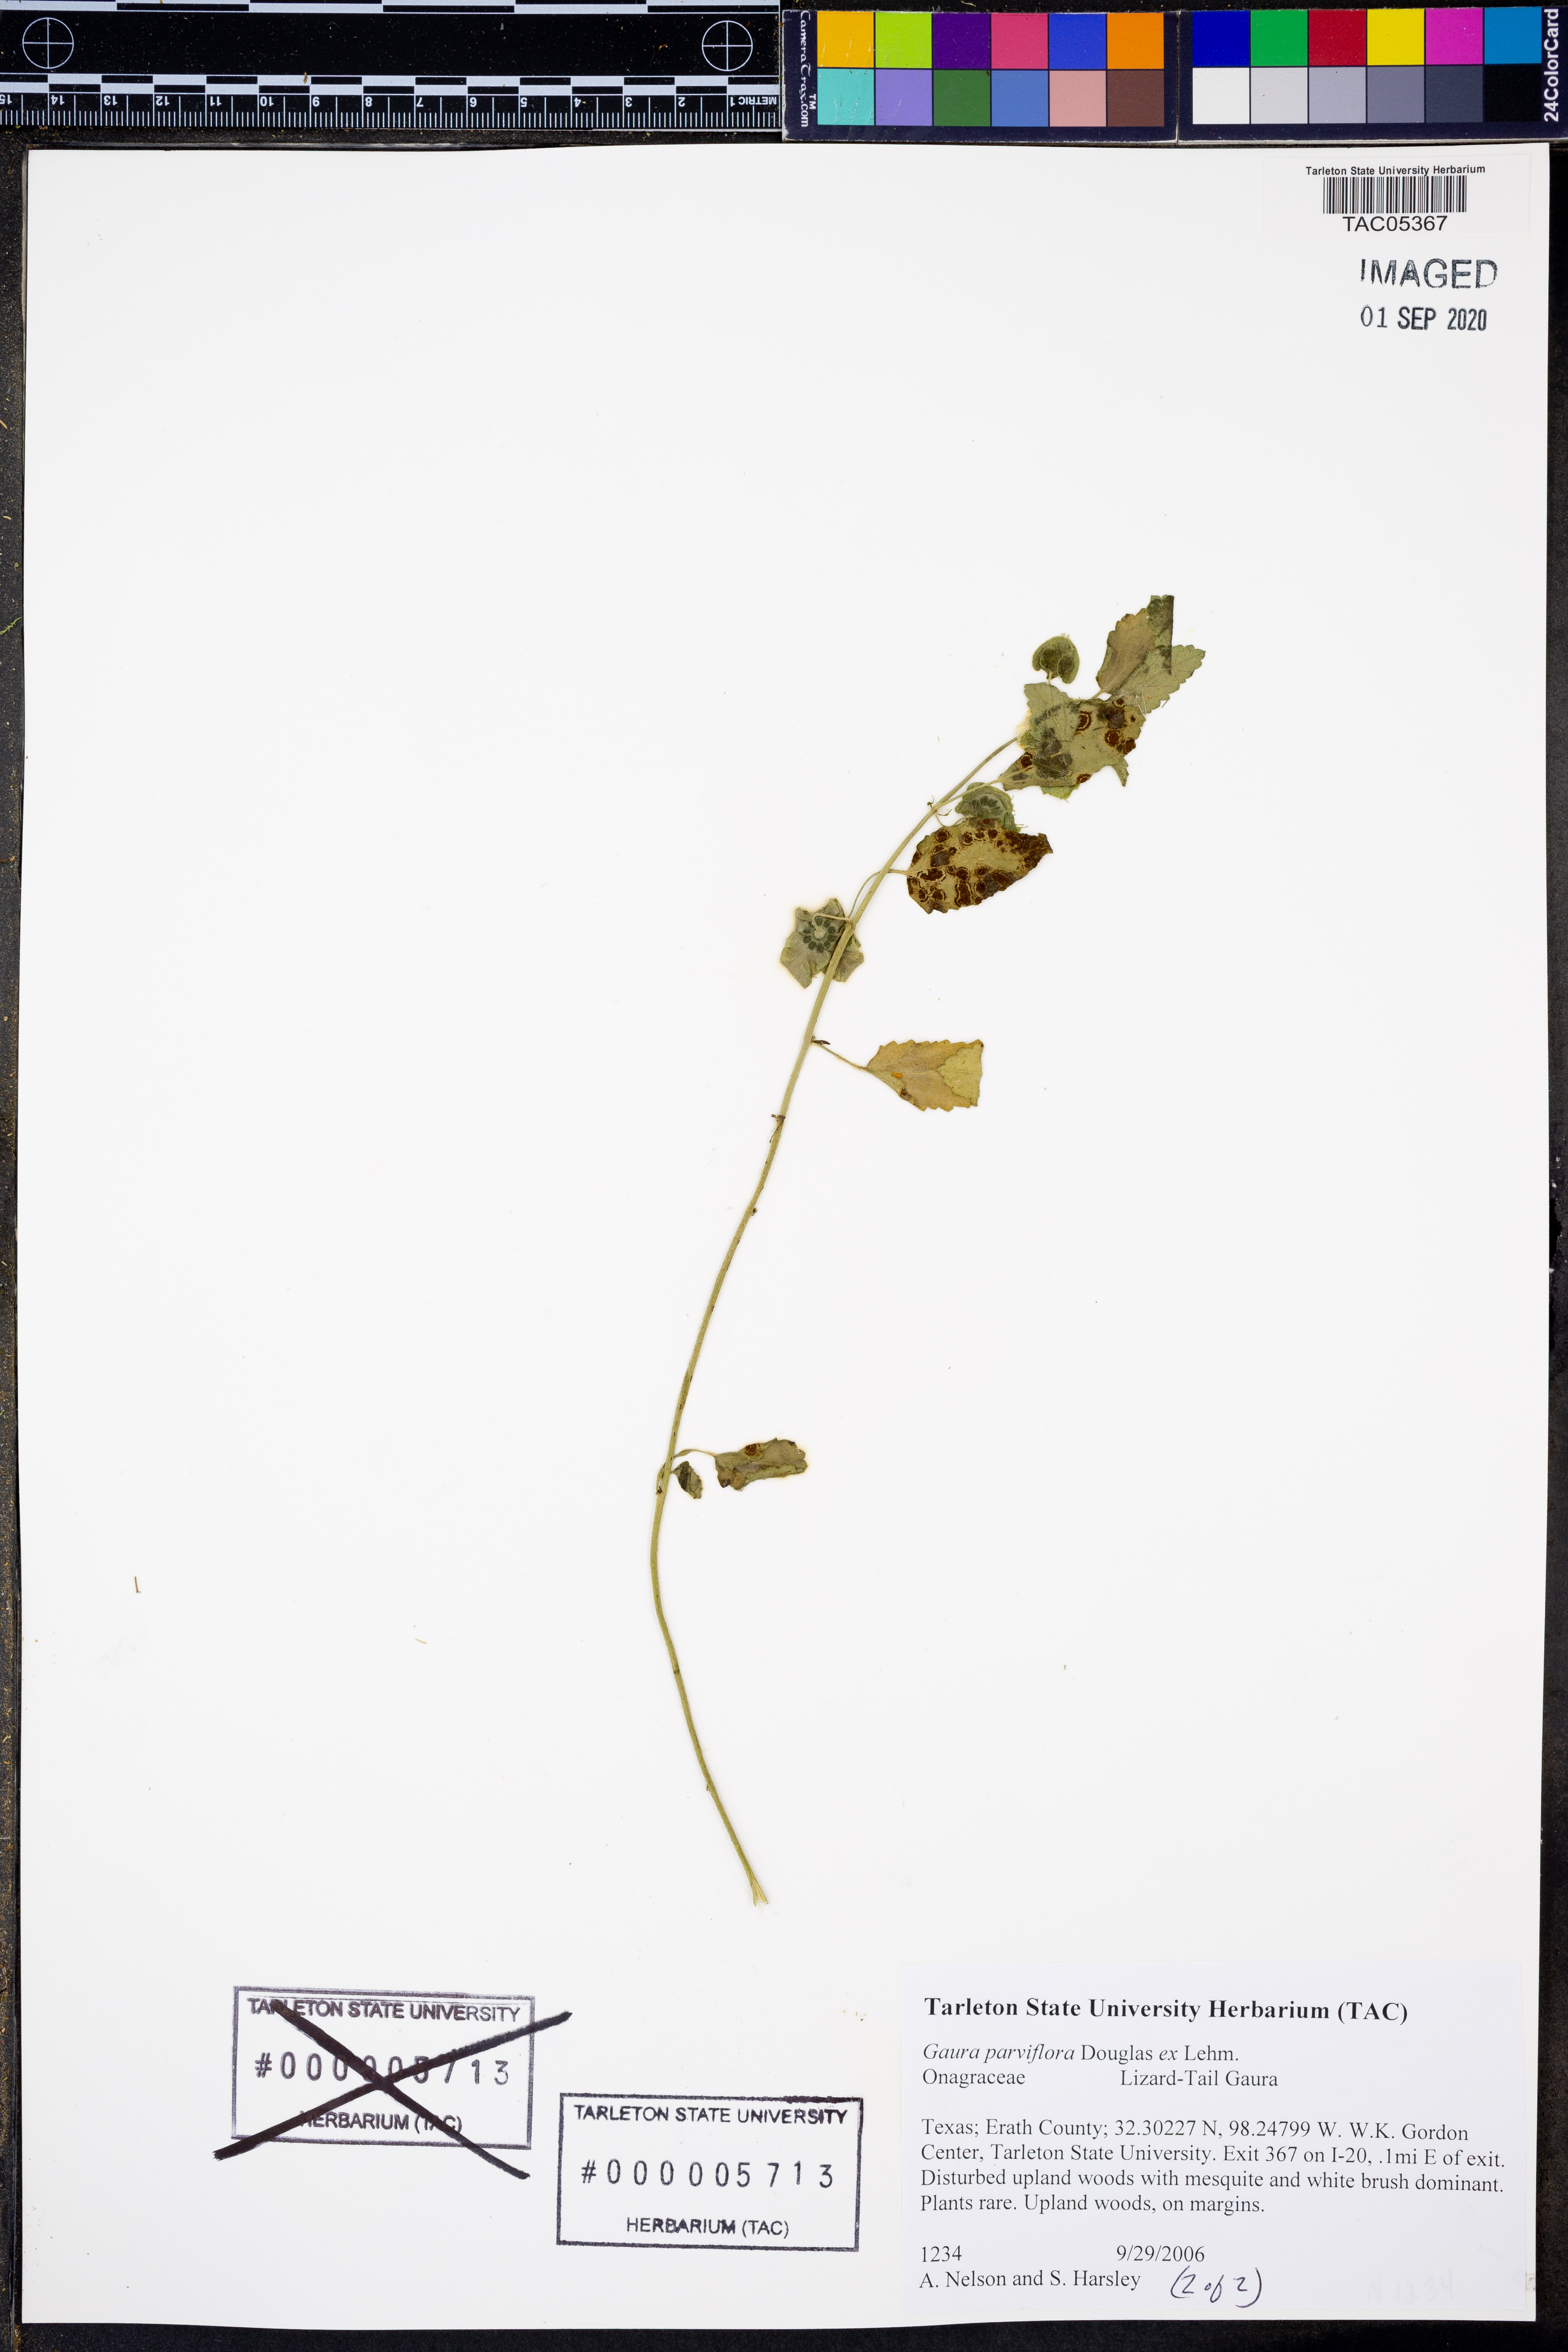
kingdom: Plantae
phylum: Tracheophyta
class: Magnoliopsida
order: Myrtales
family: Onagraceae
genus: Oenothera
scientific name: Oenothera curtiflora
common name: Velvetweed
